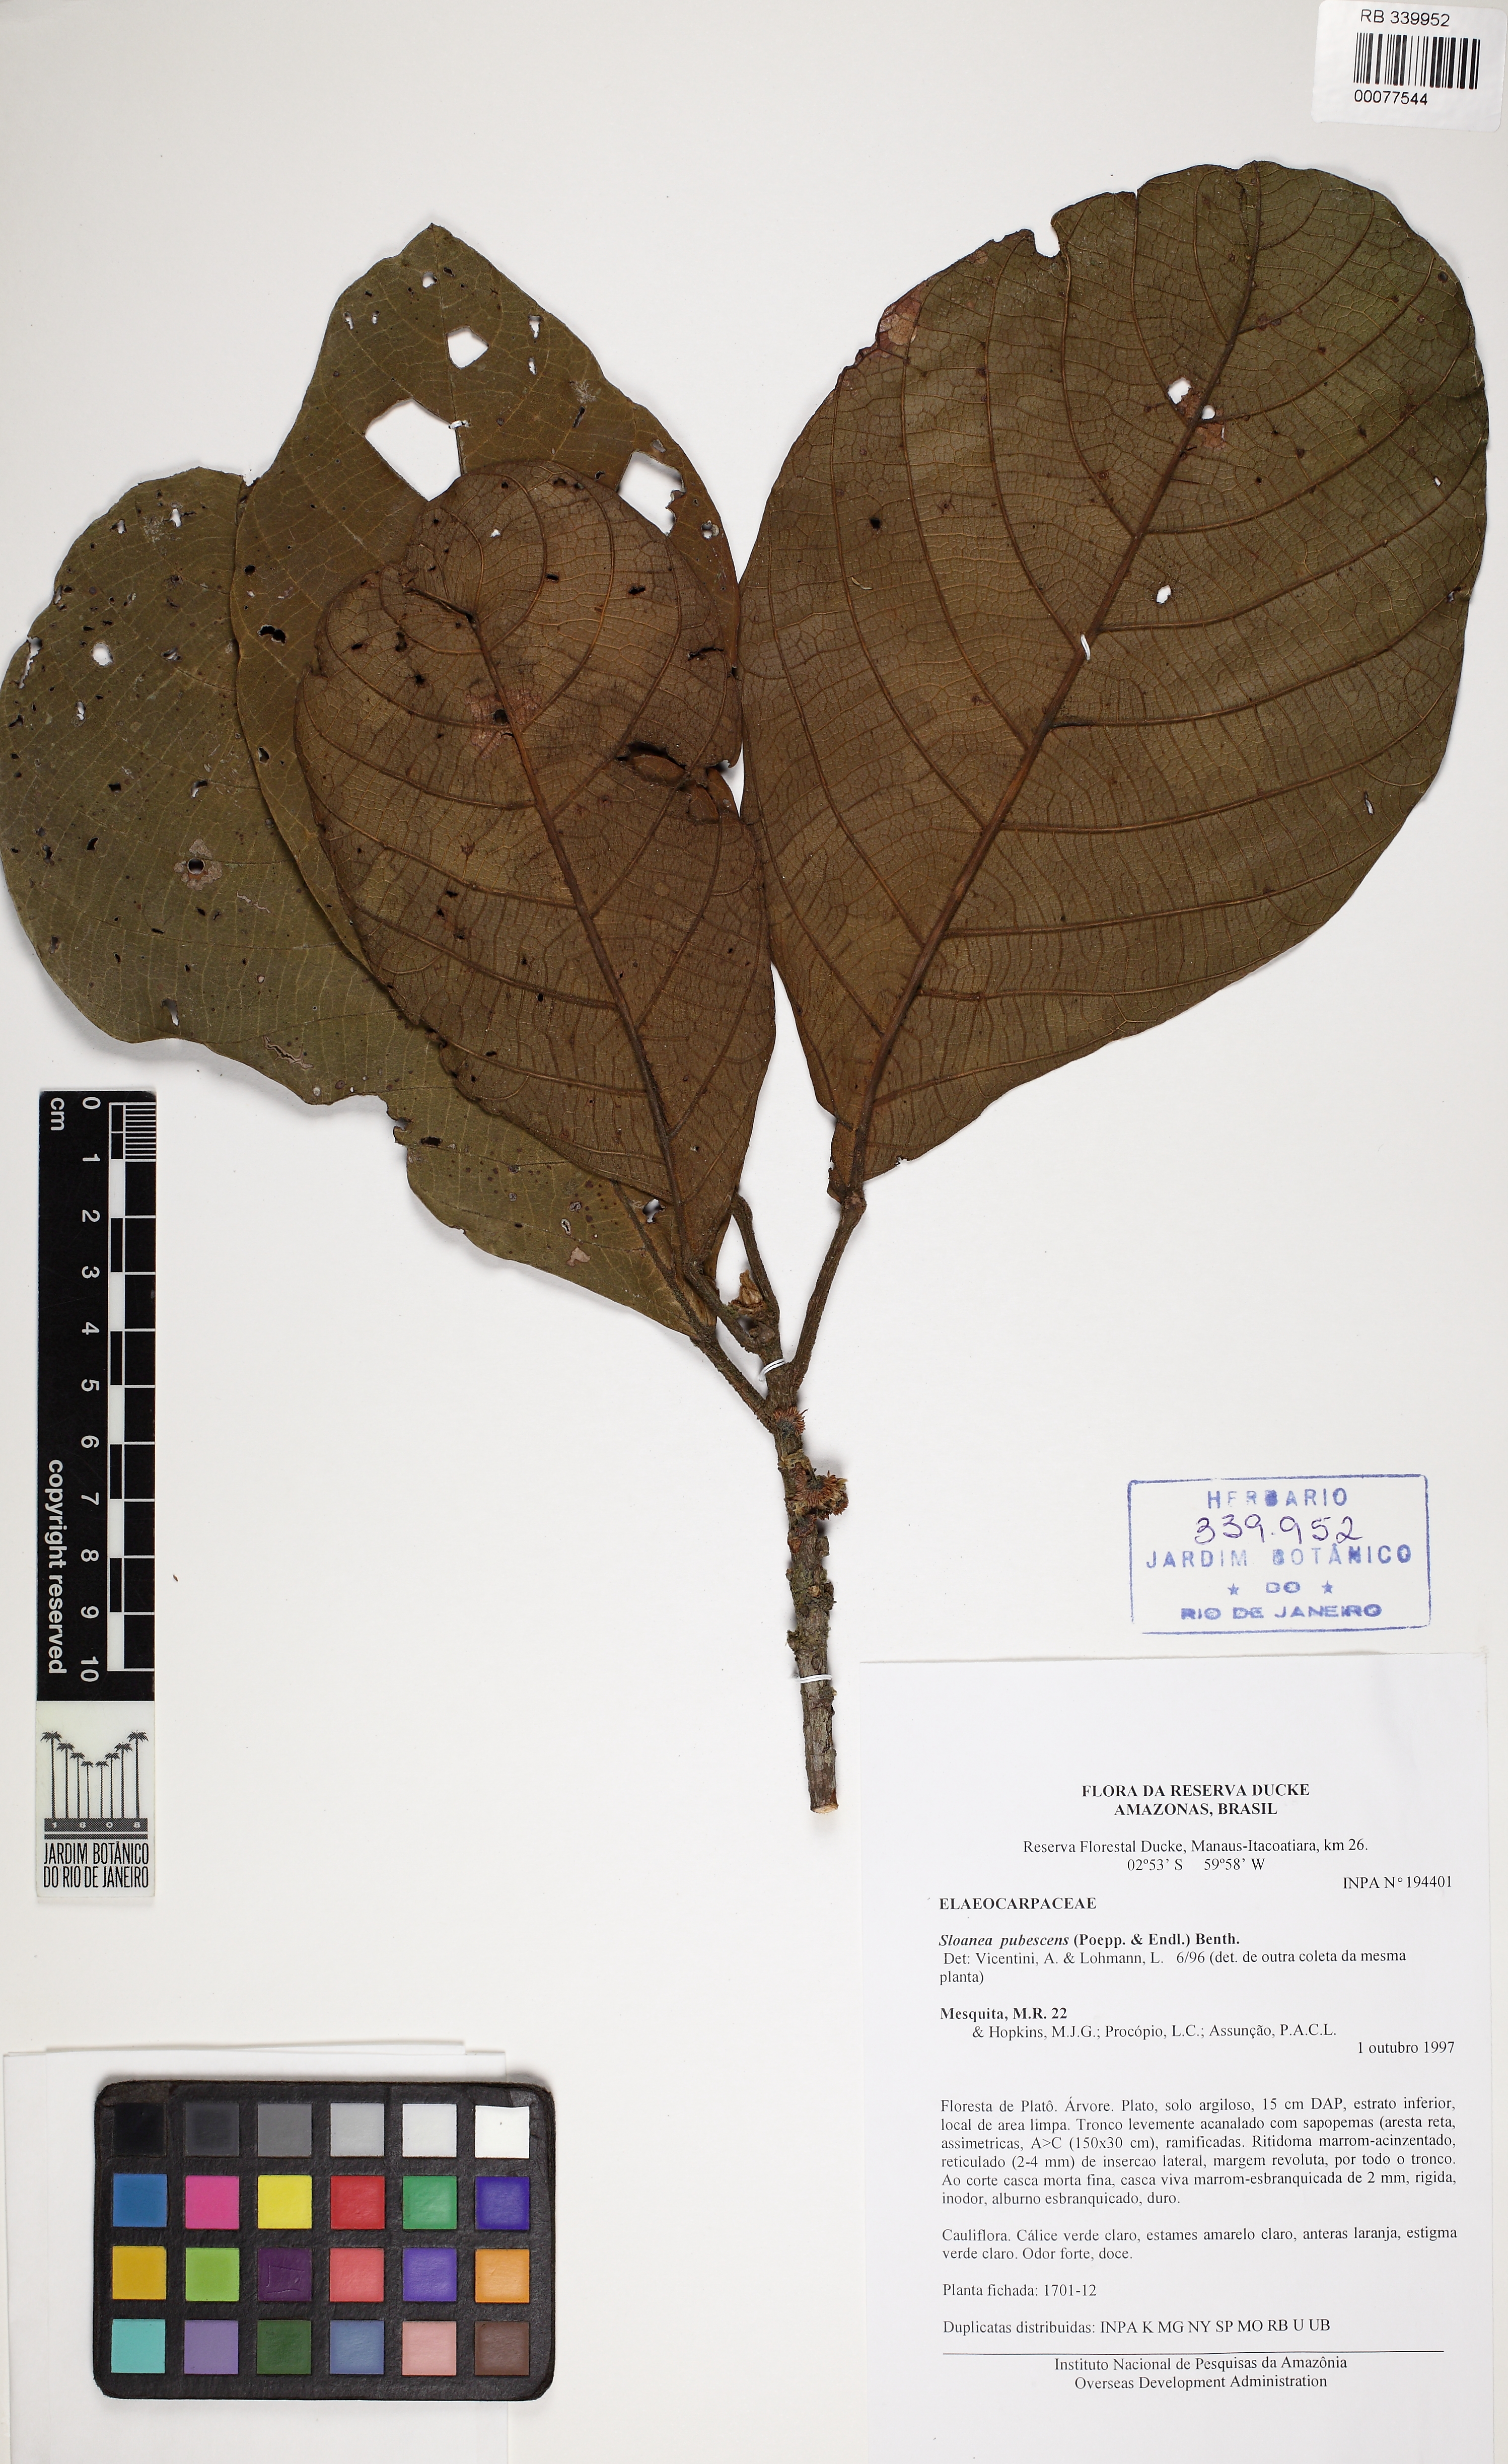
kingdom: Plantae
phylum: Tracheophyta
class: Magnoliopsida
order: Oxalidales
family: Elaeocarpaceae
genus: Sloanea
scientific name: Sloanea pubescens
